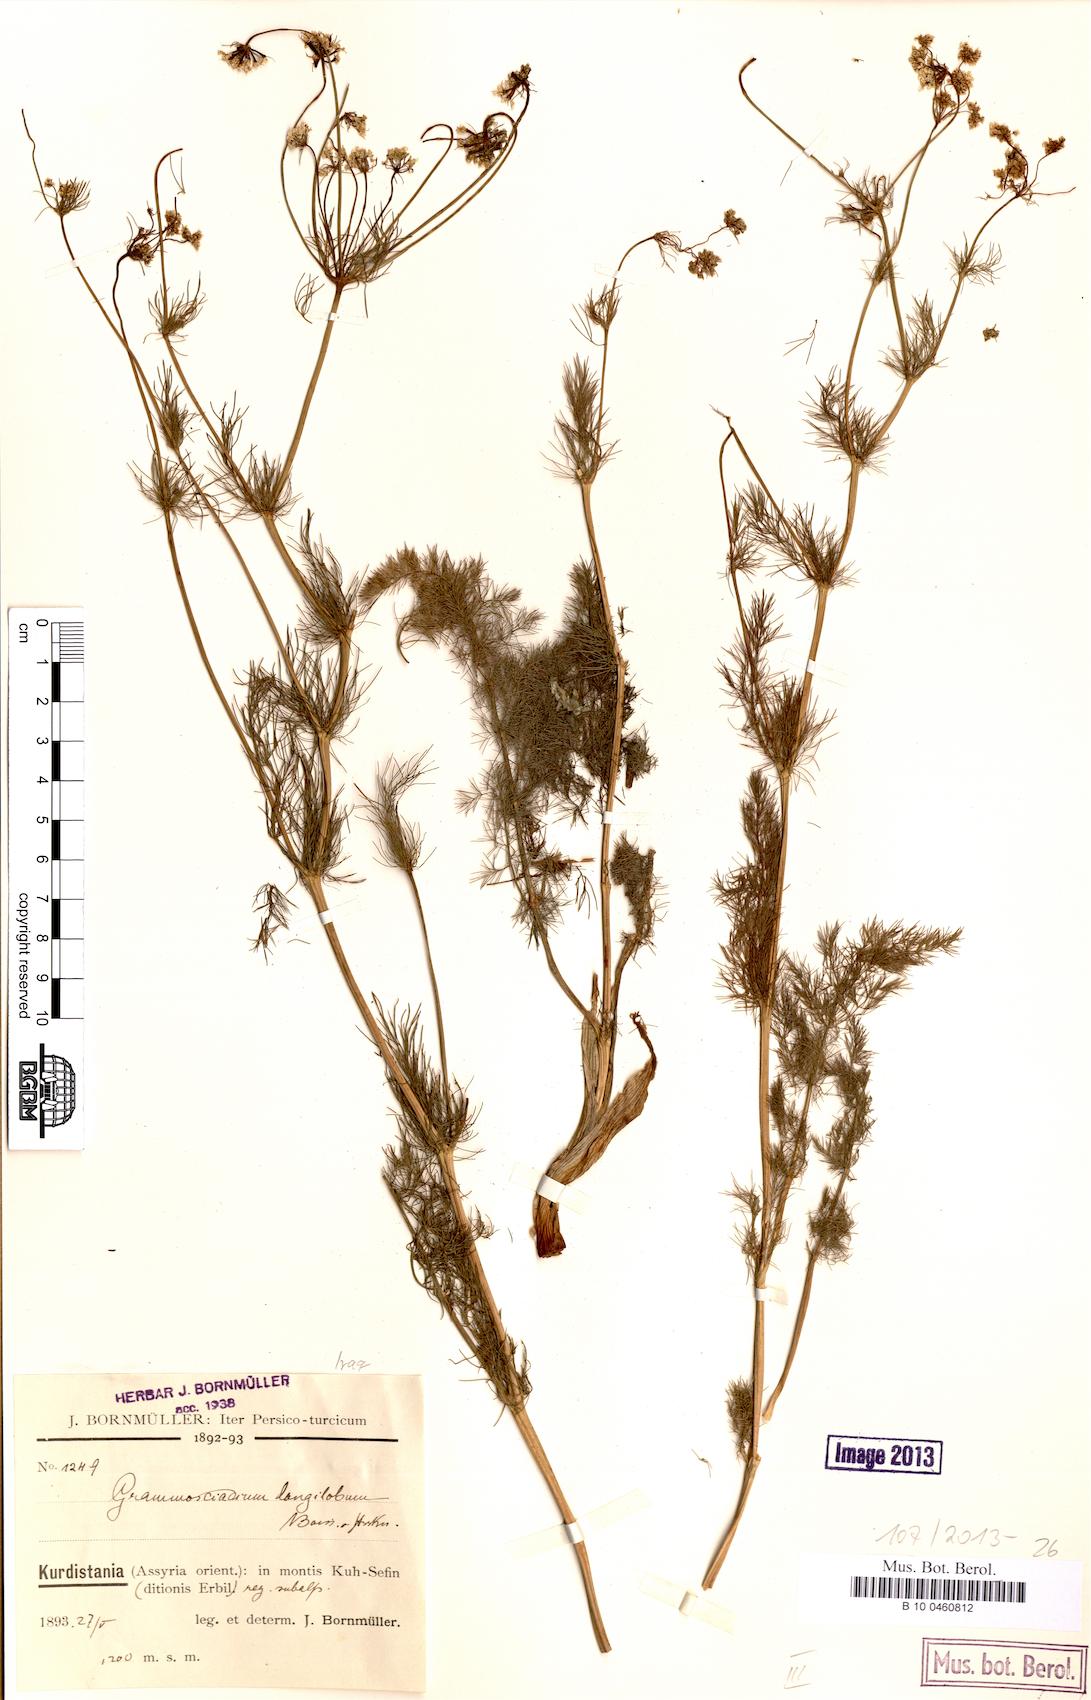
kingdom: Plantae
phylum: Tracheophyta
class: Magnoliopsida
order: Apiales
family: Apiaceae
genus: Grammosciadium
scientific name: Grammosciadium scabridum
